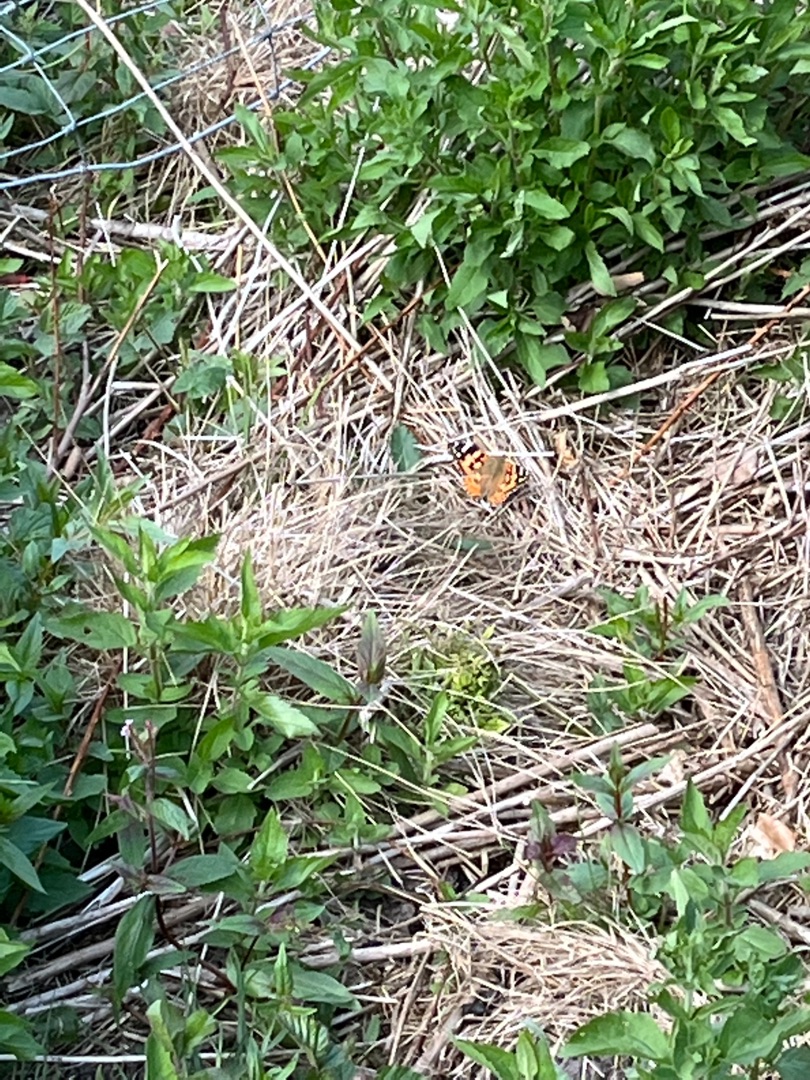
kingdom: Animalia
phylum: Arthropoda
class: Insecta
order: Lepidoptera
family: Nymphalidae
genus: Vanessa
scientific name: Vanessa cardui
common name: Tidselsommerfugl
